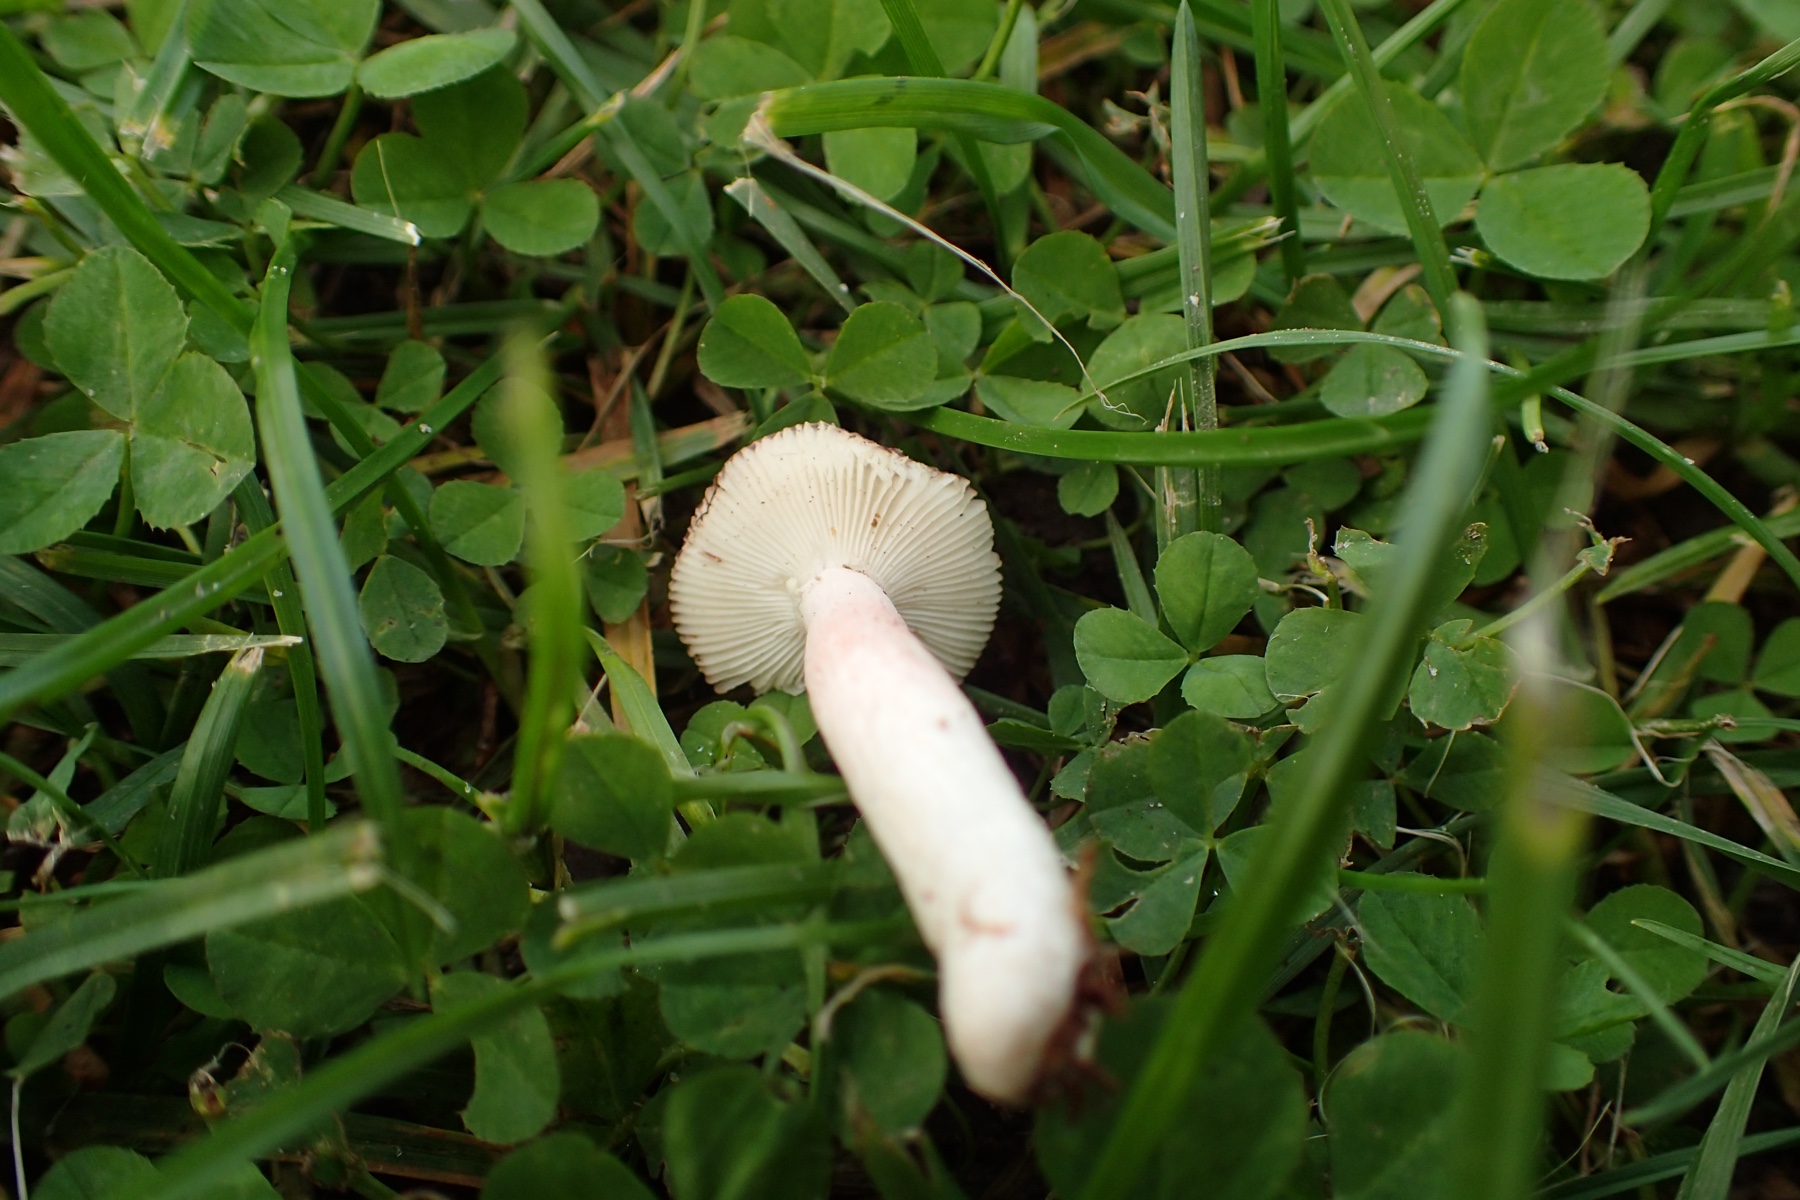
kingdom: Fungi
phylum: Basidiomycota
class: Agaricomycetes
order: Russulales
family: Russulaceae
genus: Russula
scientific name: Russula gracillima
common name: slank skørhat
